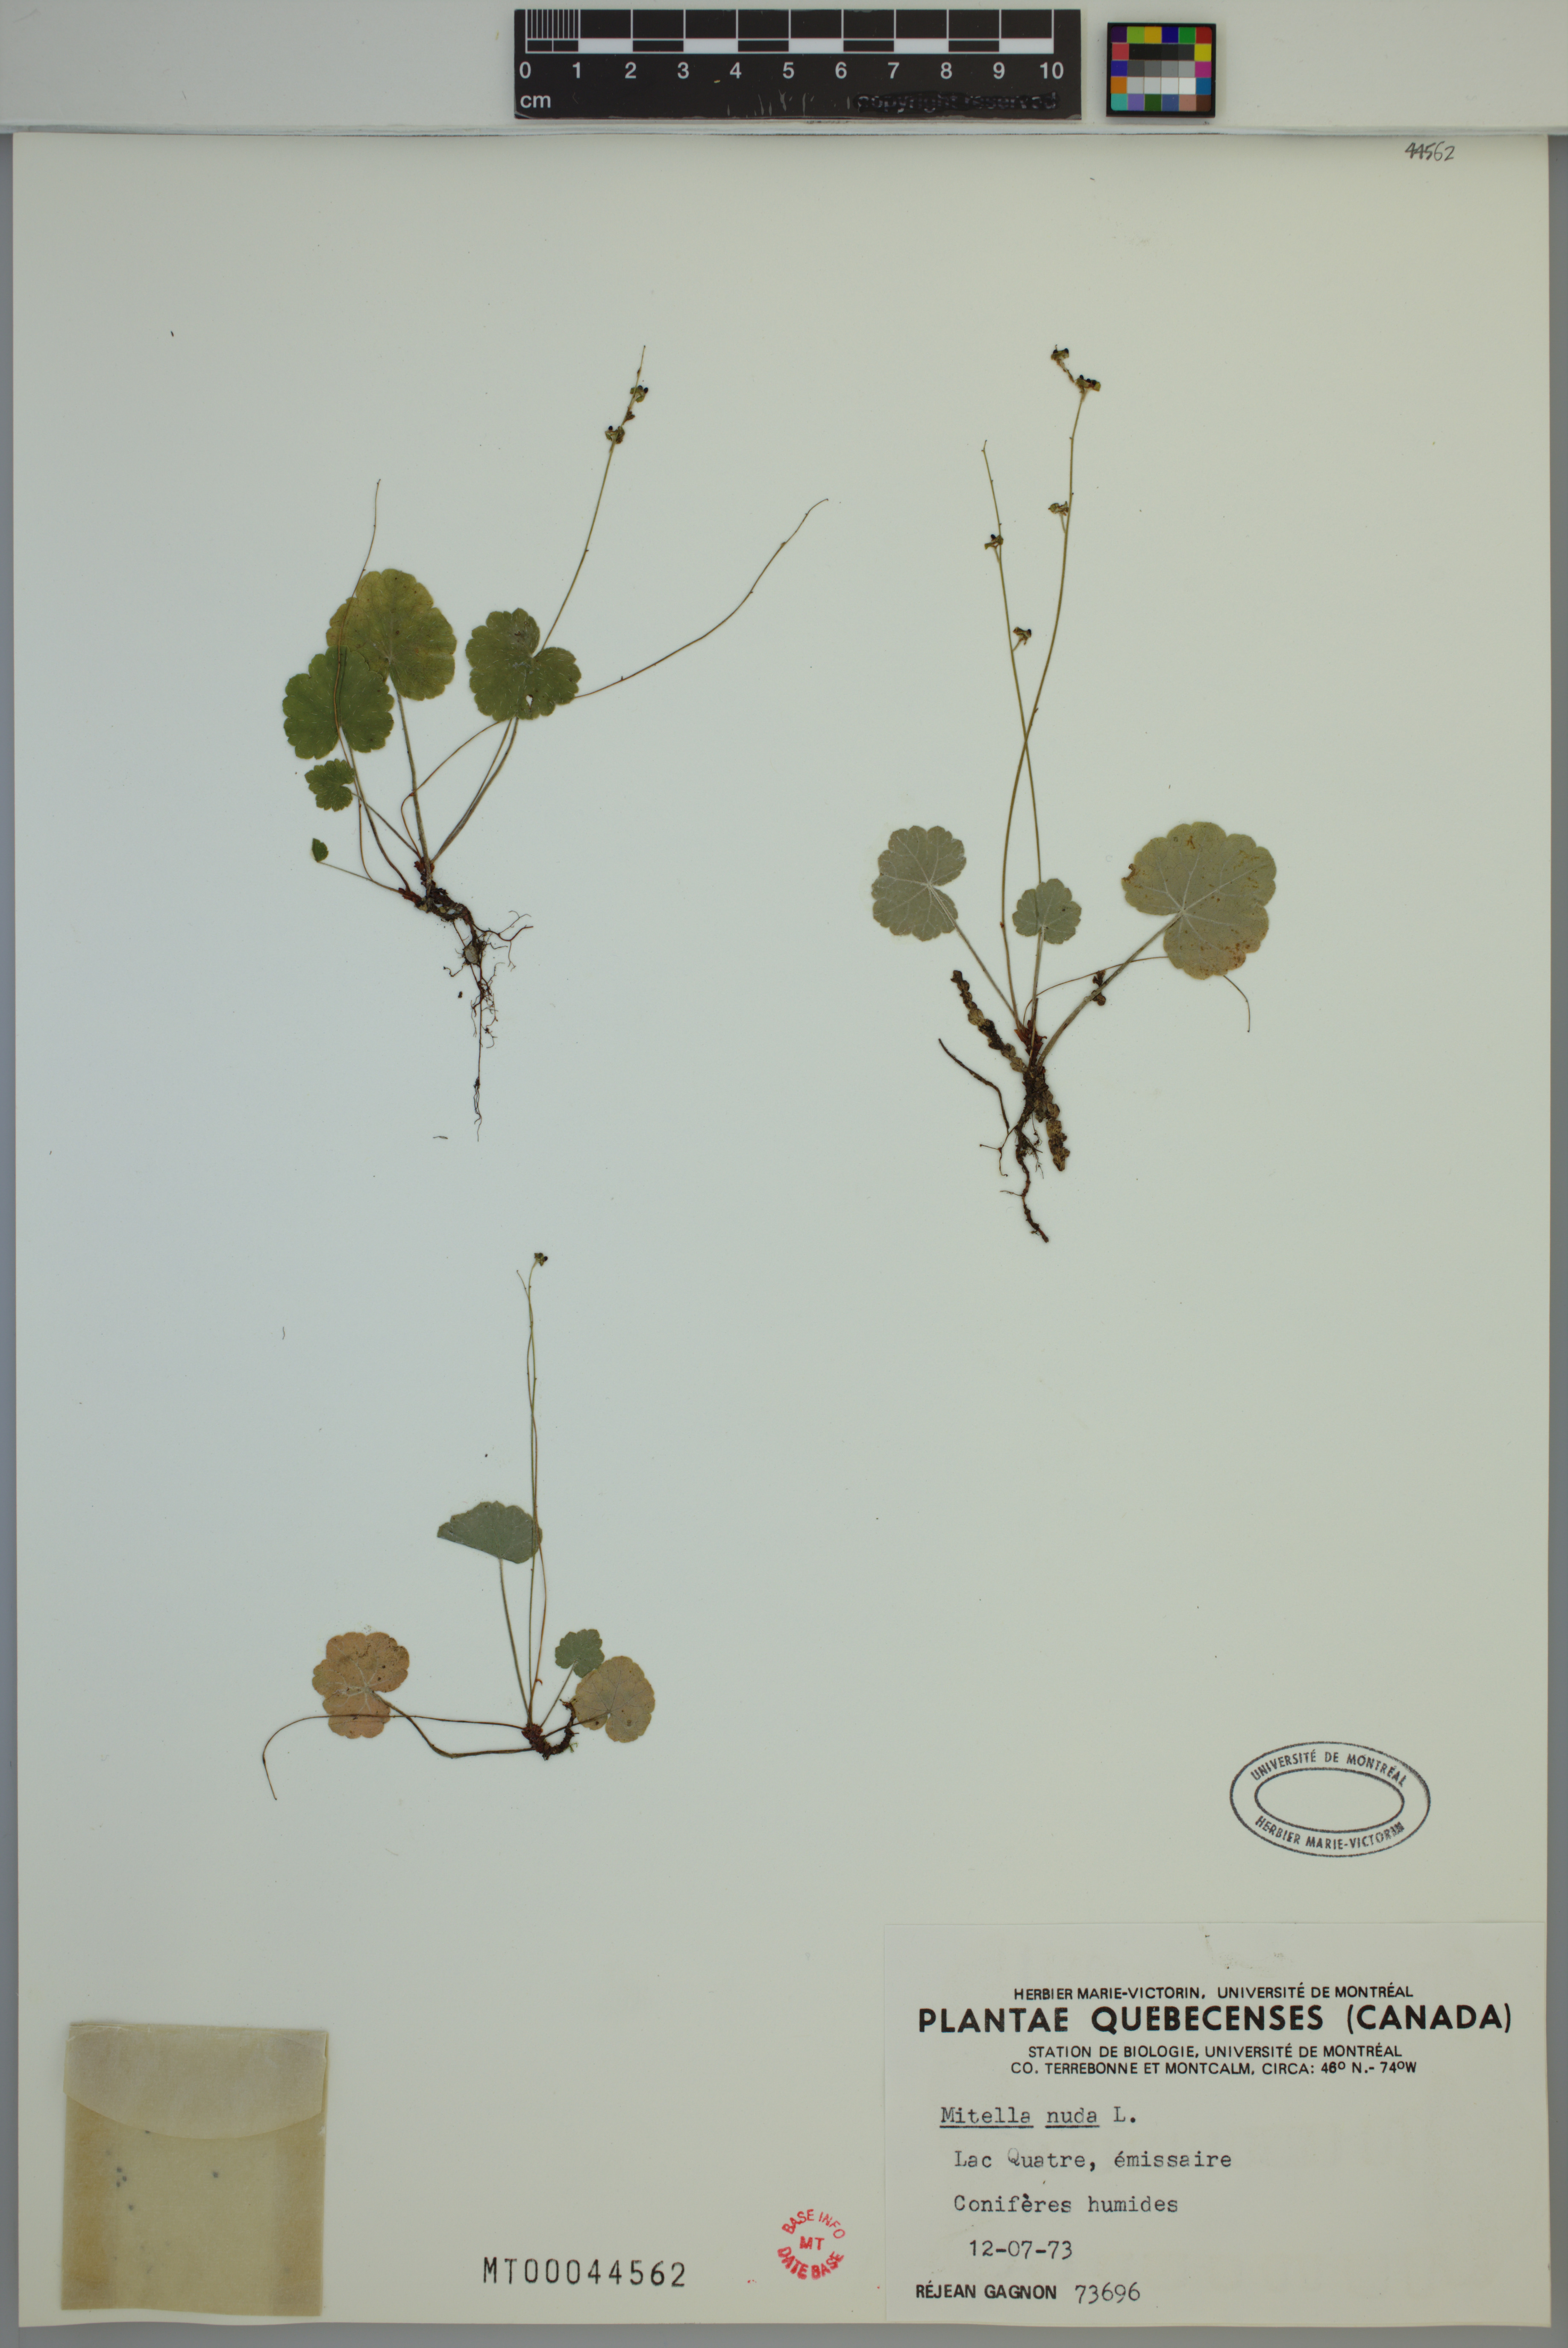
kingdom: Plantae
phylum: Tracheophyta
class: Magnoliopsida
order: Saxifragales
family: Saxifragaceae
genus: Mitella
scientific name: Mitella nuda
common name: Bare-stemmed bishop's-cap
